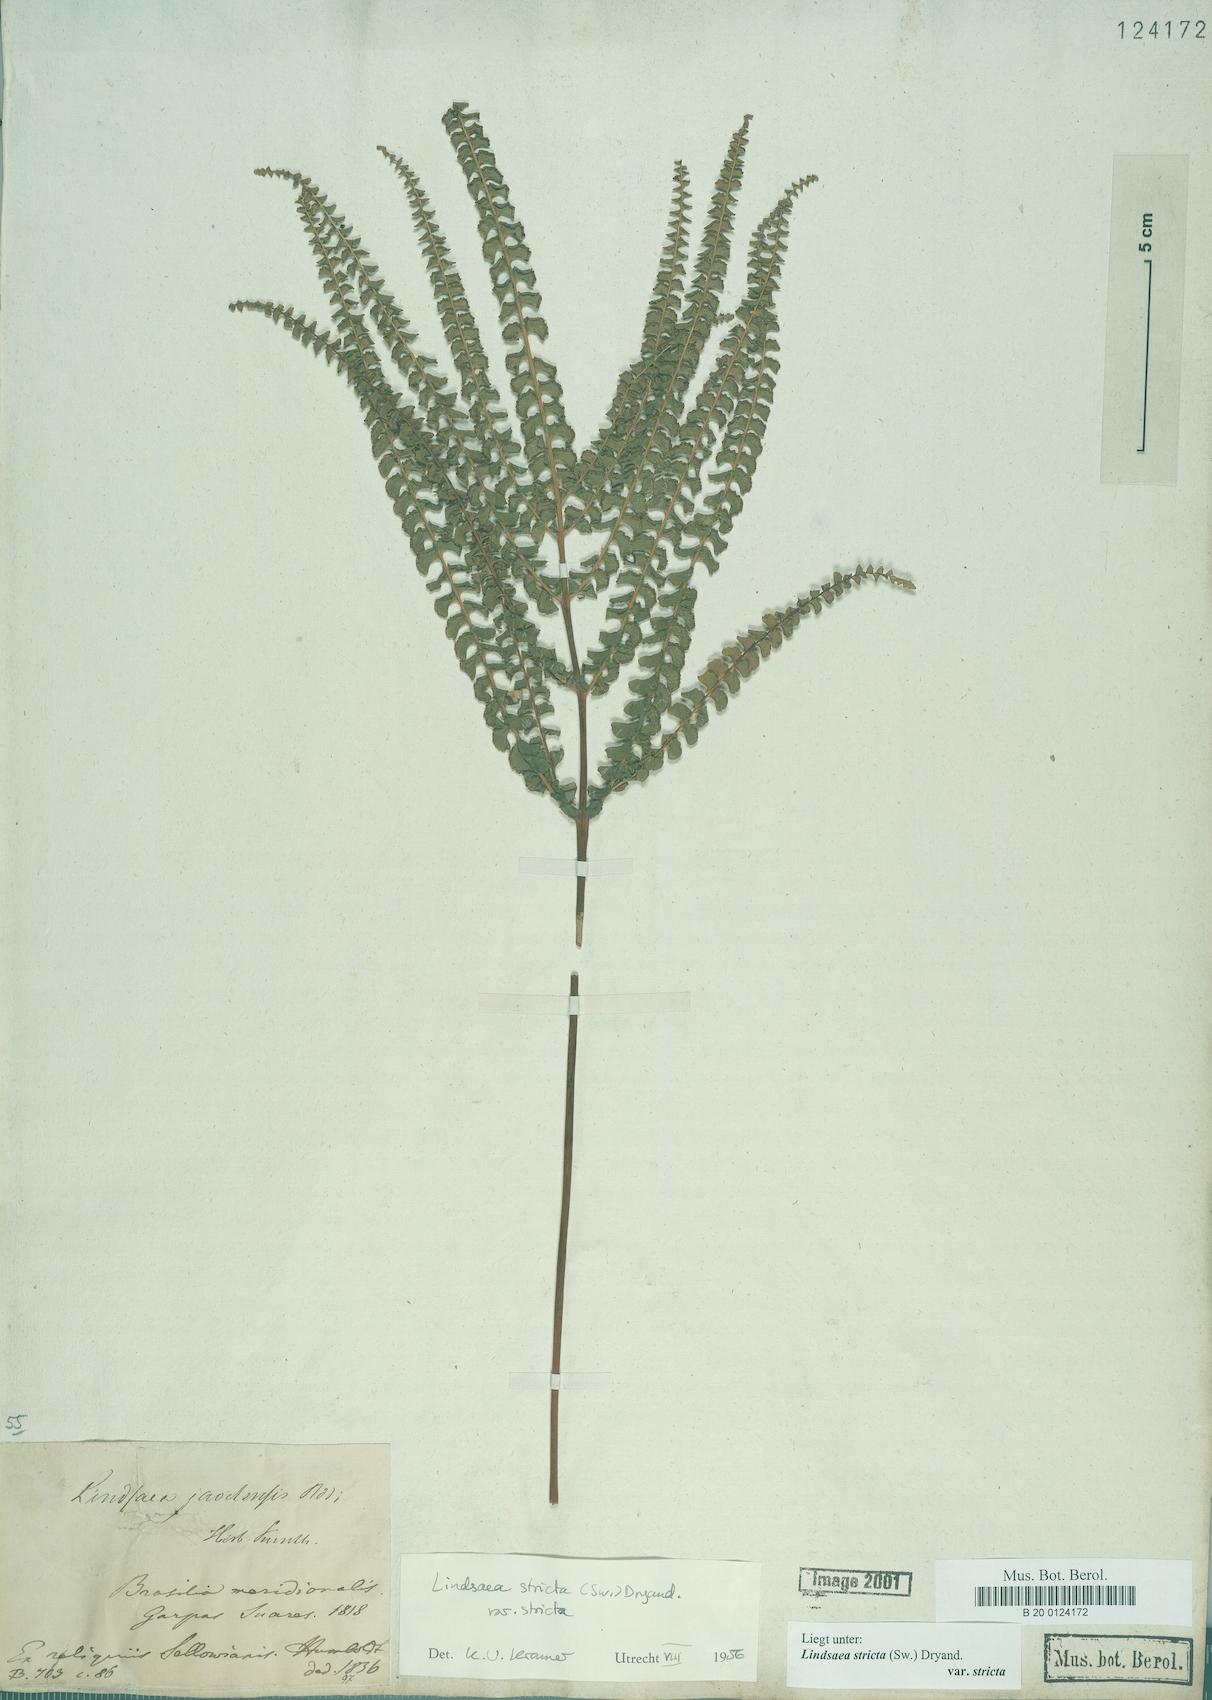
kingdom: Plantae
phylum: Tracheophyta
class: Polypodiopsida
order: Polypodiales
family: Lindsaeaceae
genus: Lindsaea
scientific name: Lindsaea stricta
